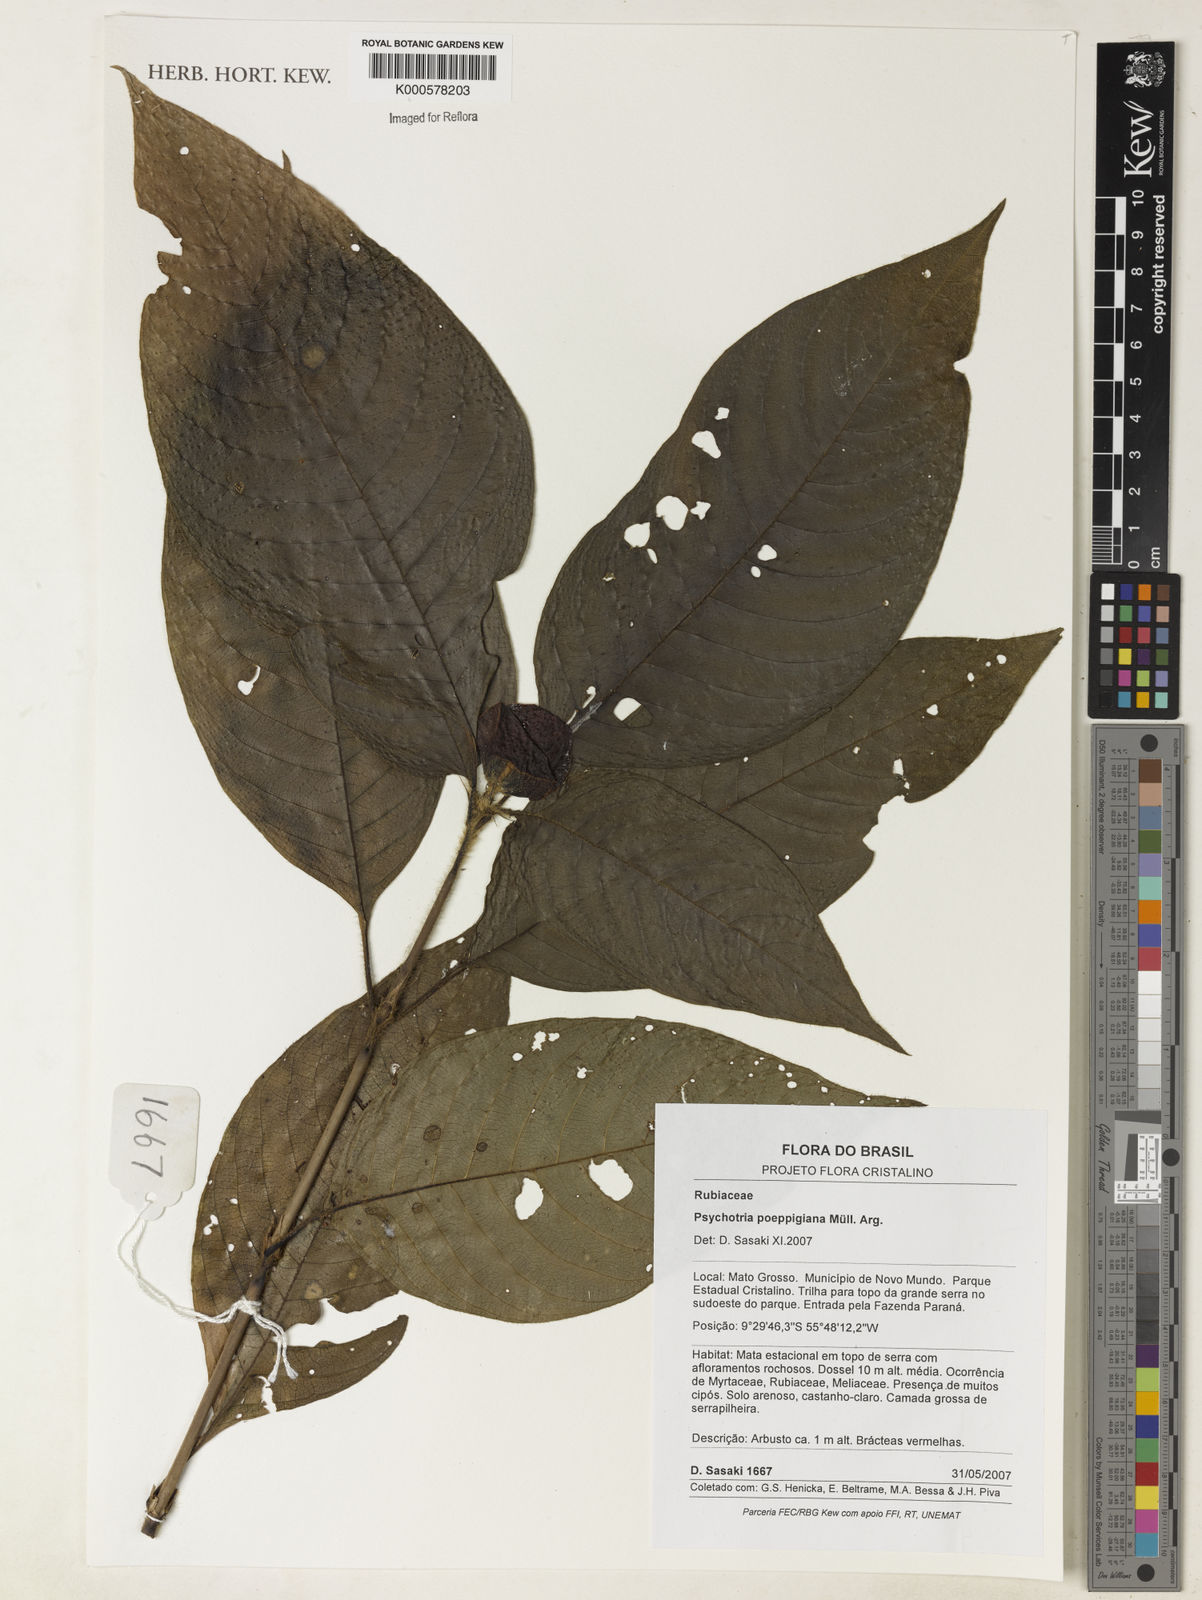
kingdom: Plantae
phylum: Tracheophyta
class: Magnoliopsida
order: Gentianales
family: Rubiaceae
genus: Psychotria
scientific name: Psychotria
